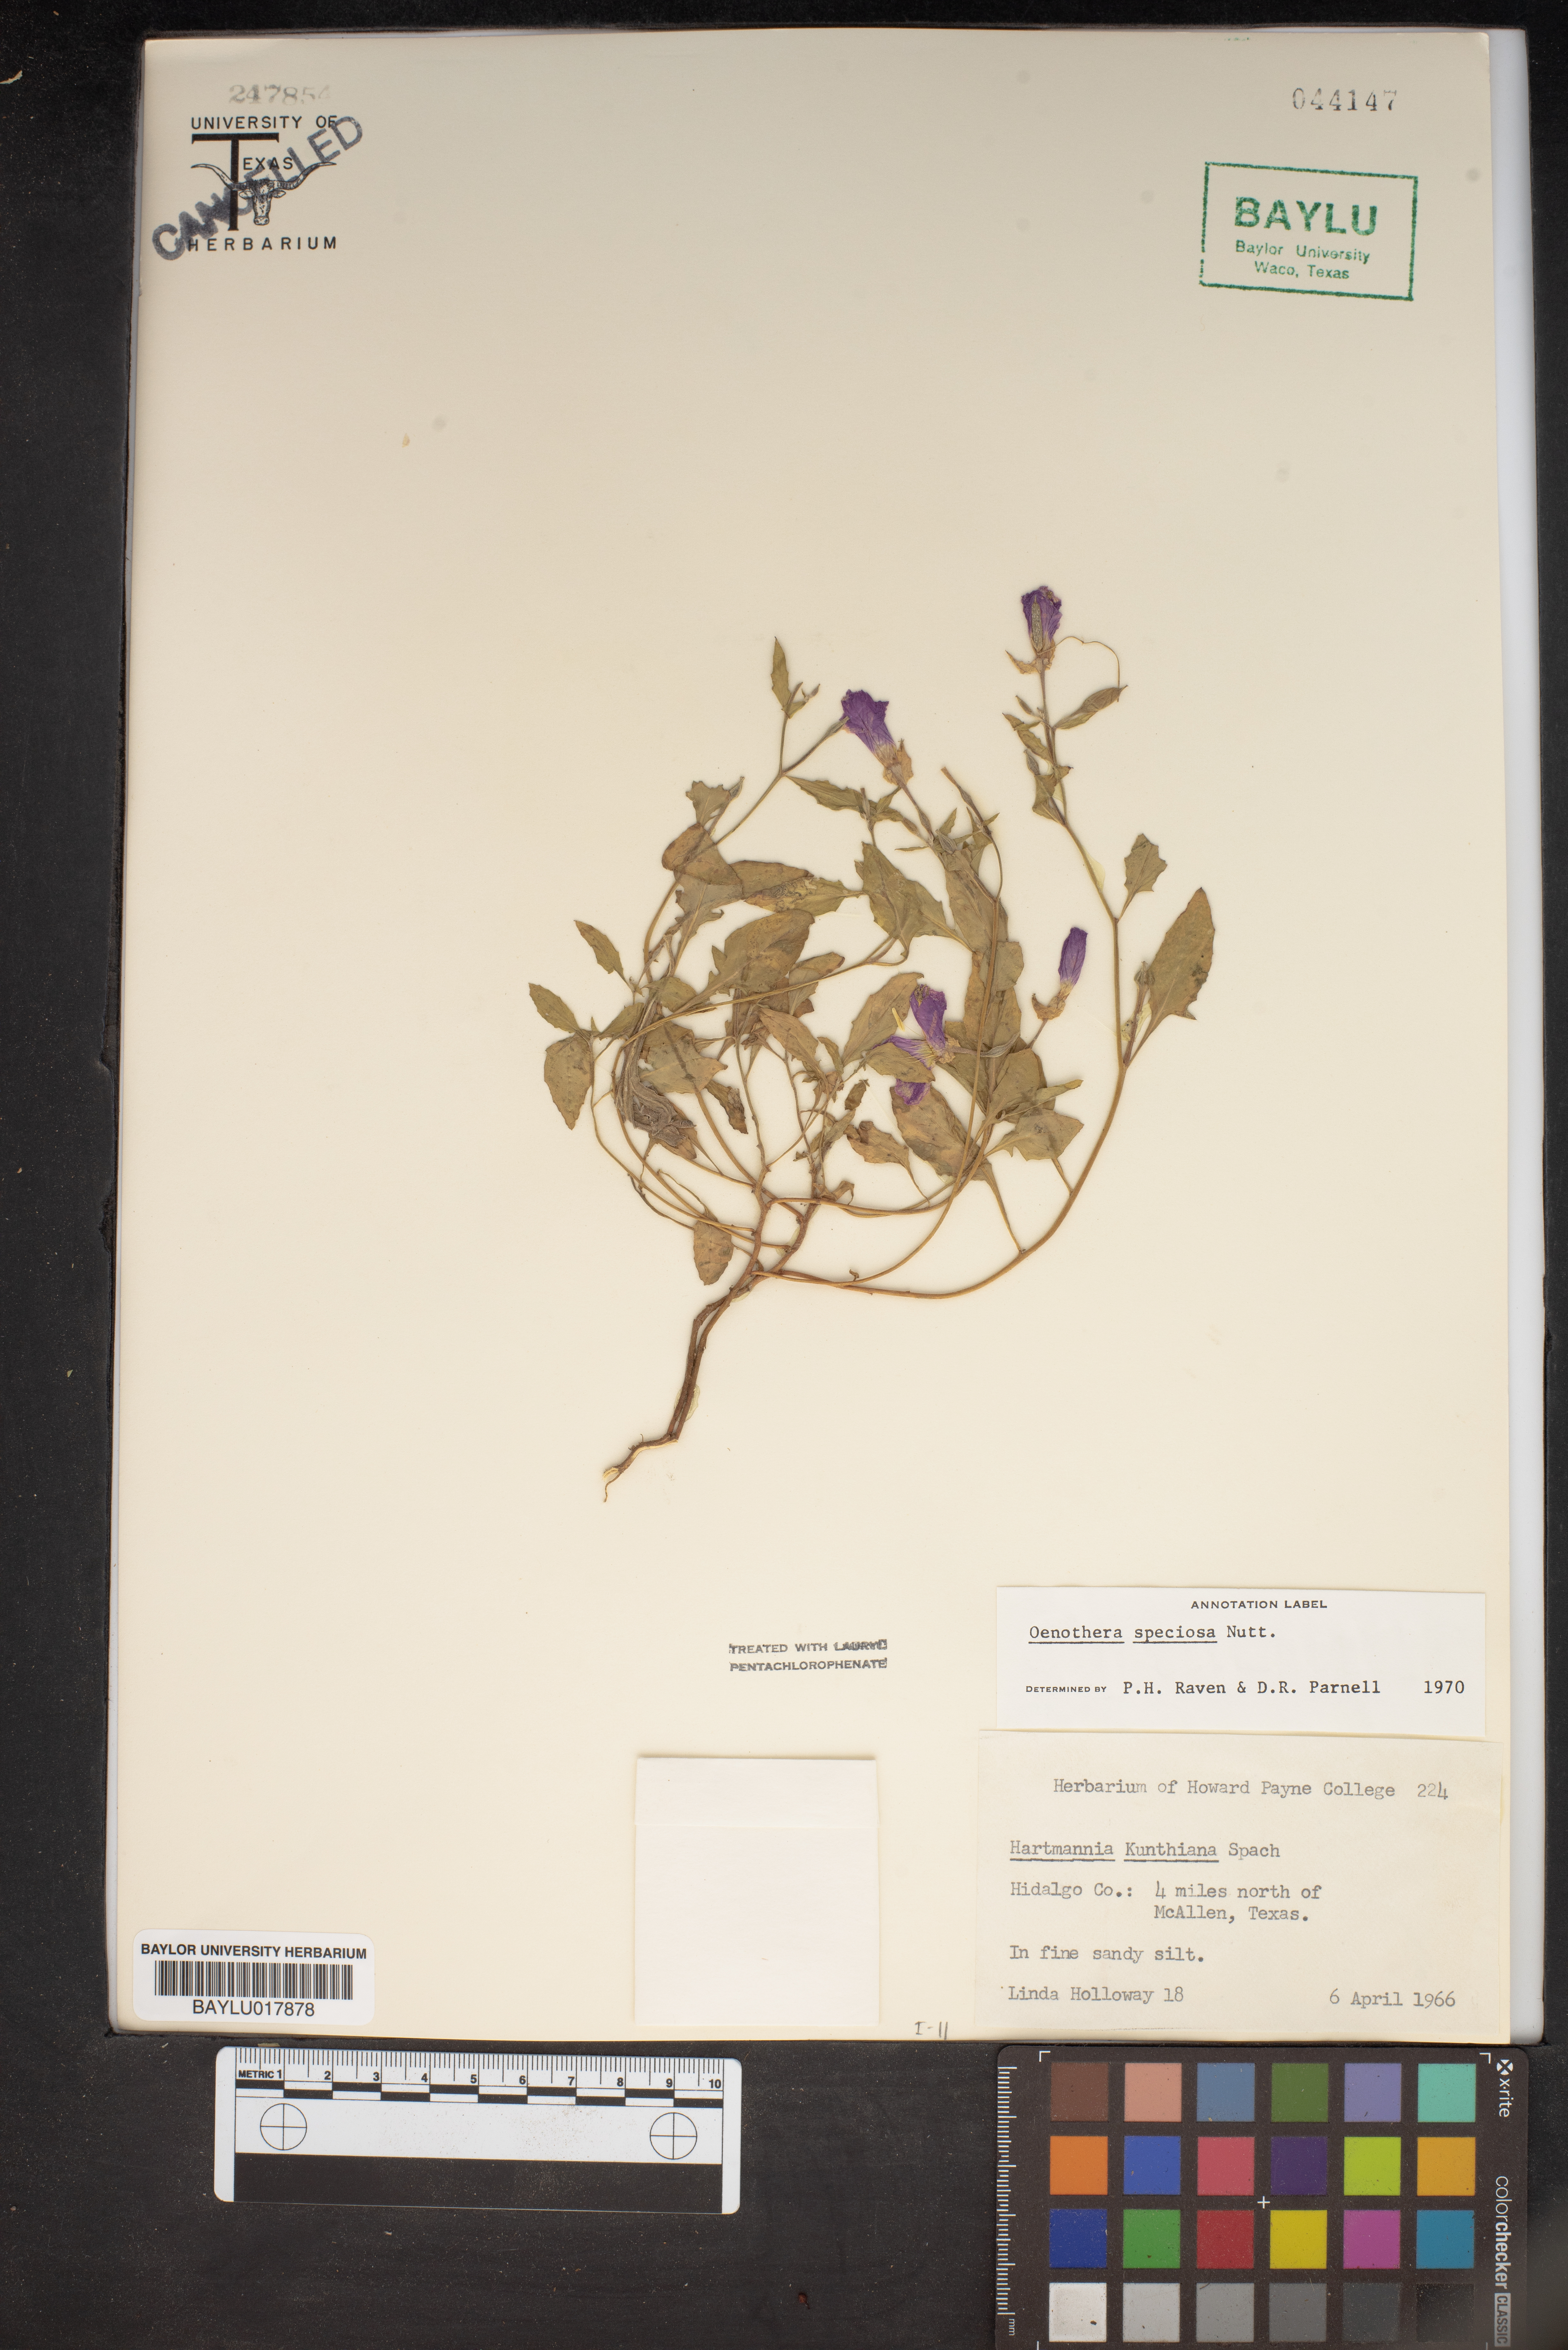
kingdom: Plantae
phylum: Tracheophyta
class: Magnoliopsida
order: Myrtales
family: Onagraceae
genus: Oenothera
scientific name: Oenothera speciosa
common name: White evening-primrose
